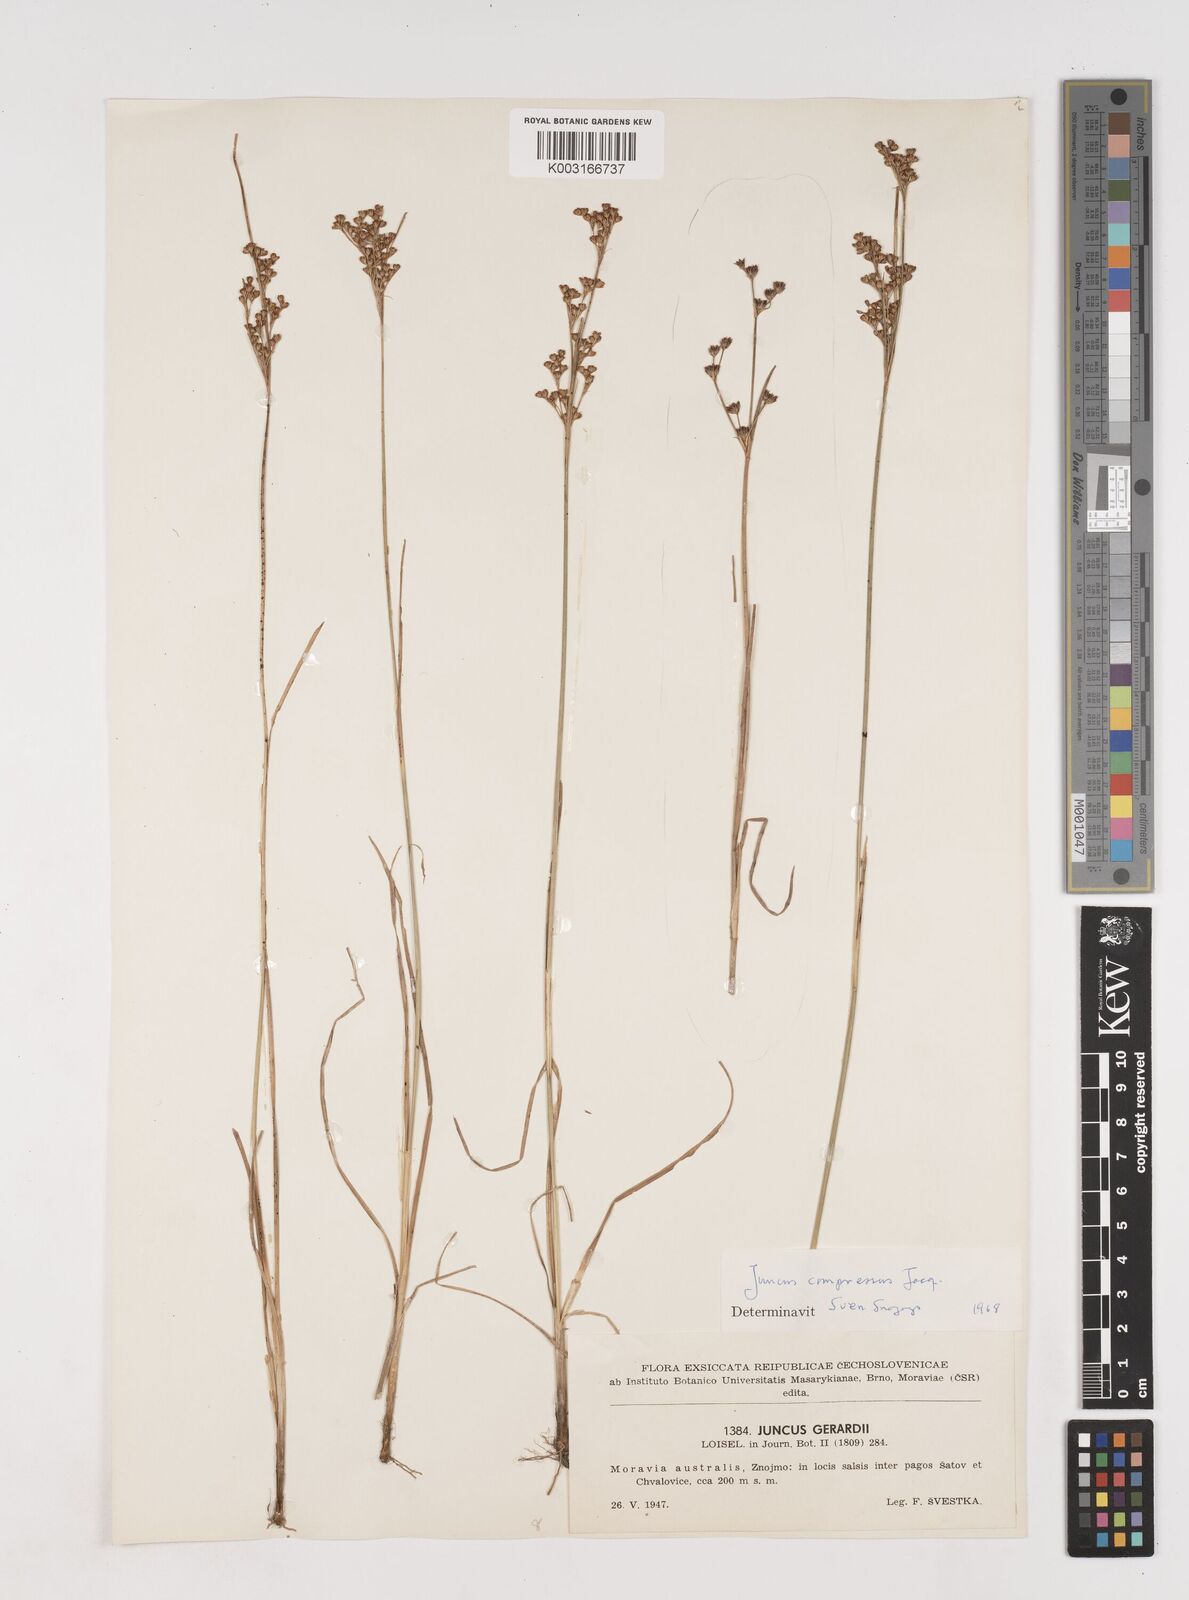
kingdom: Plantae
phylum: Tracheophyta
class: Liliopsida
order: Poales
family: Juncaceae
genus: Juncus
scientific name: Juncus
